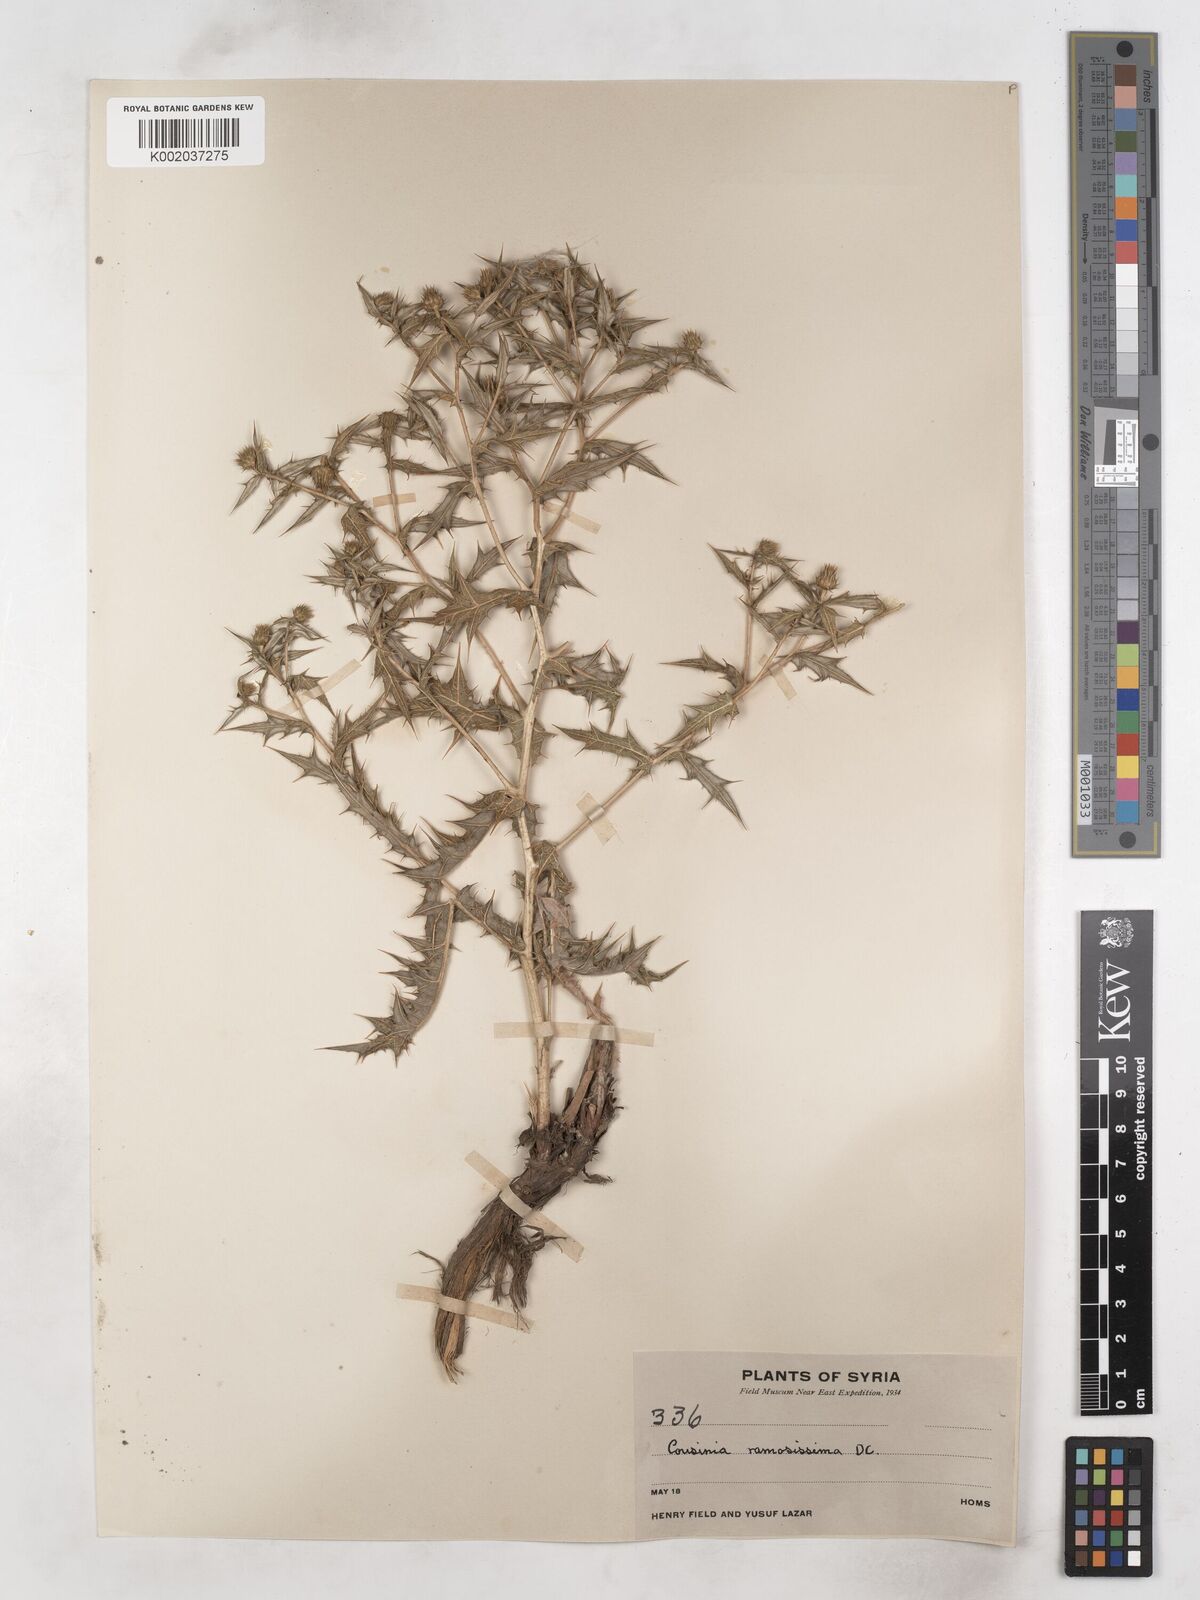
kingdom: Plantae
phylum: Tracheophyta
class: Magnoliopsida
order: Asterales
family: Asteraceae
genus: Cousinia
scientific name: Cousinia ramosissima
